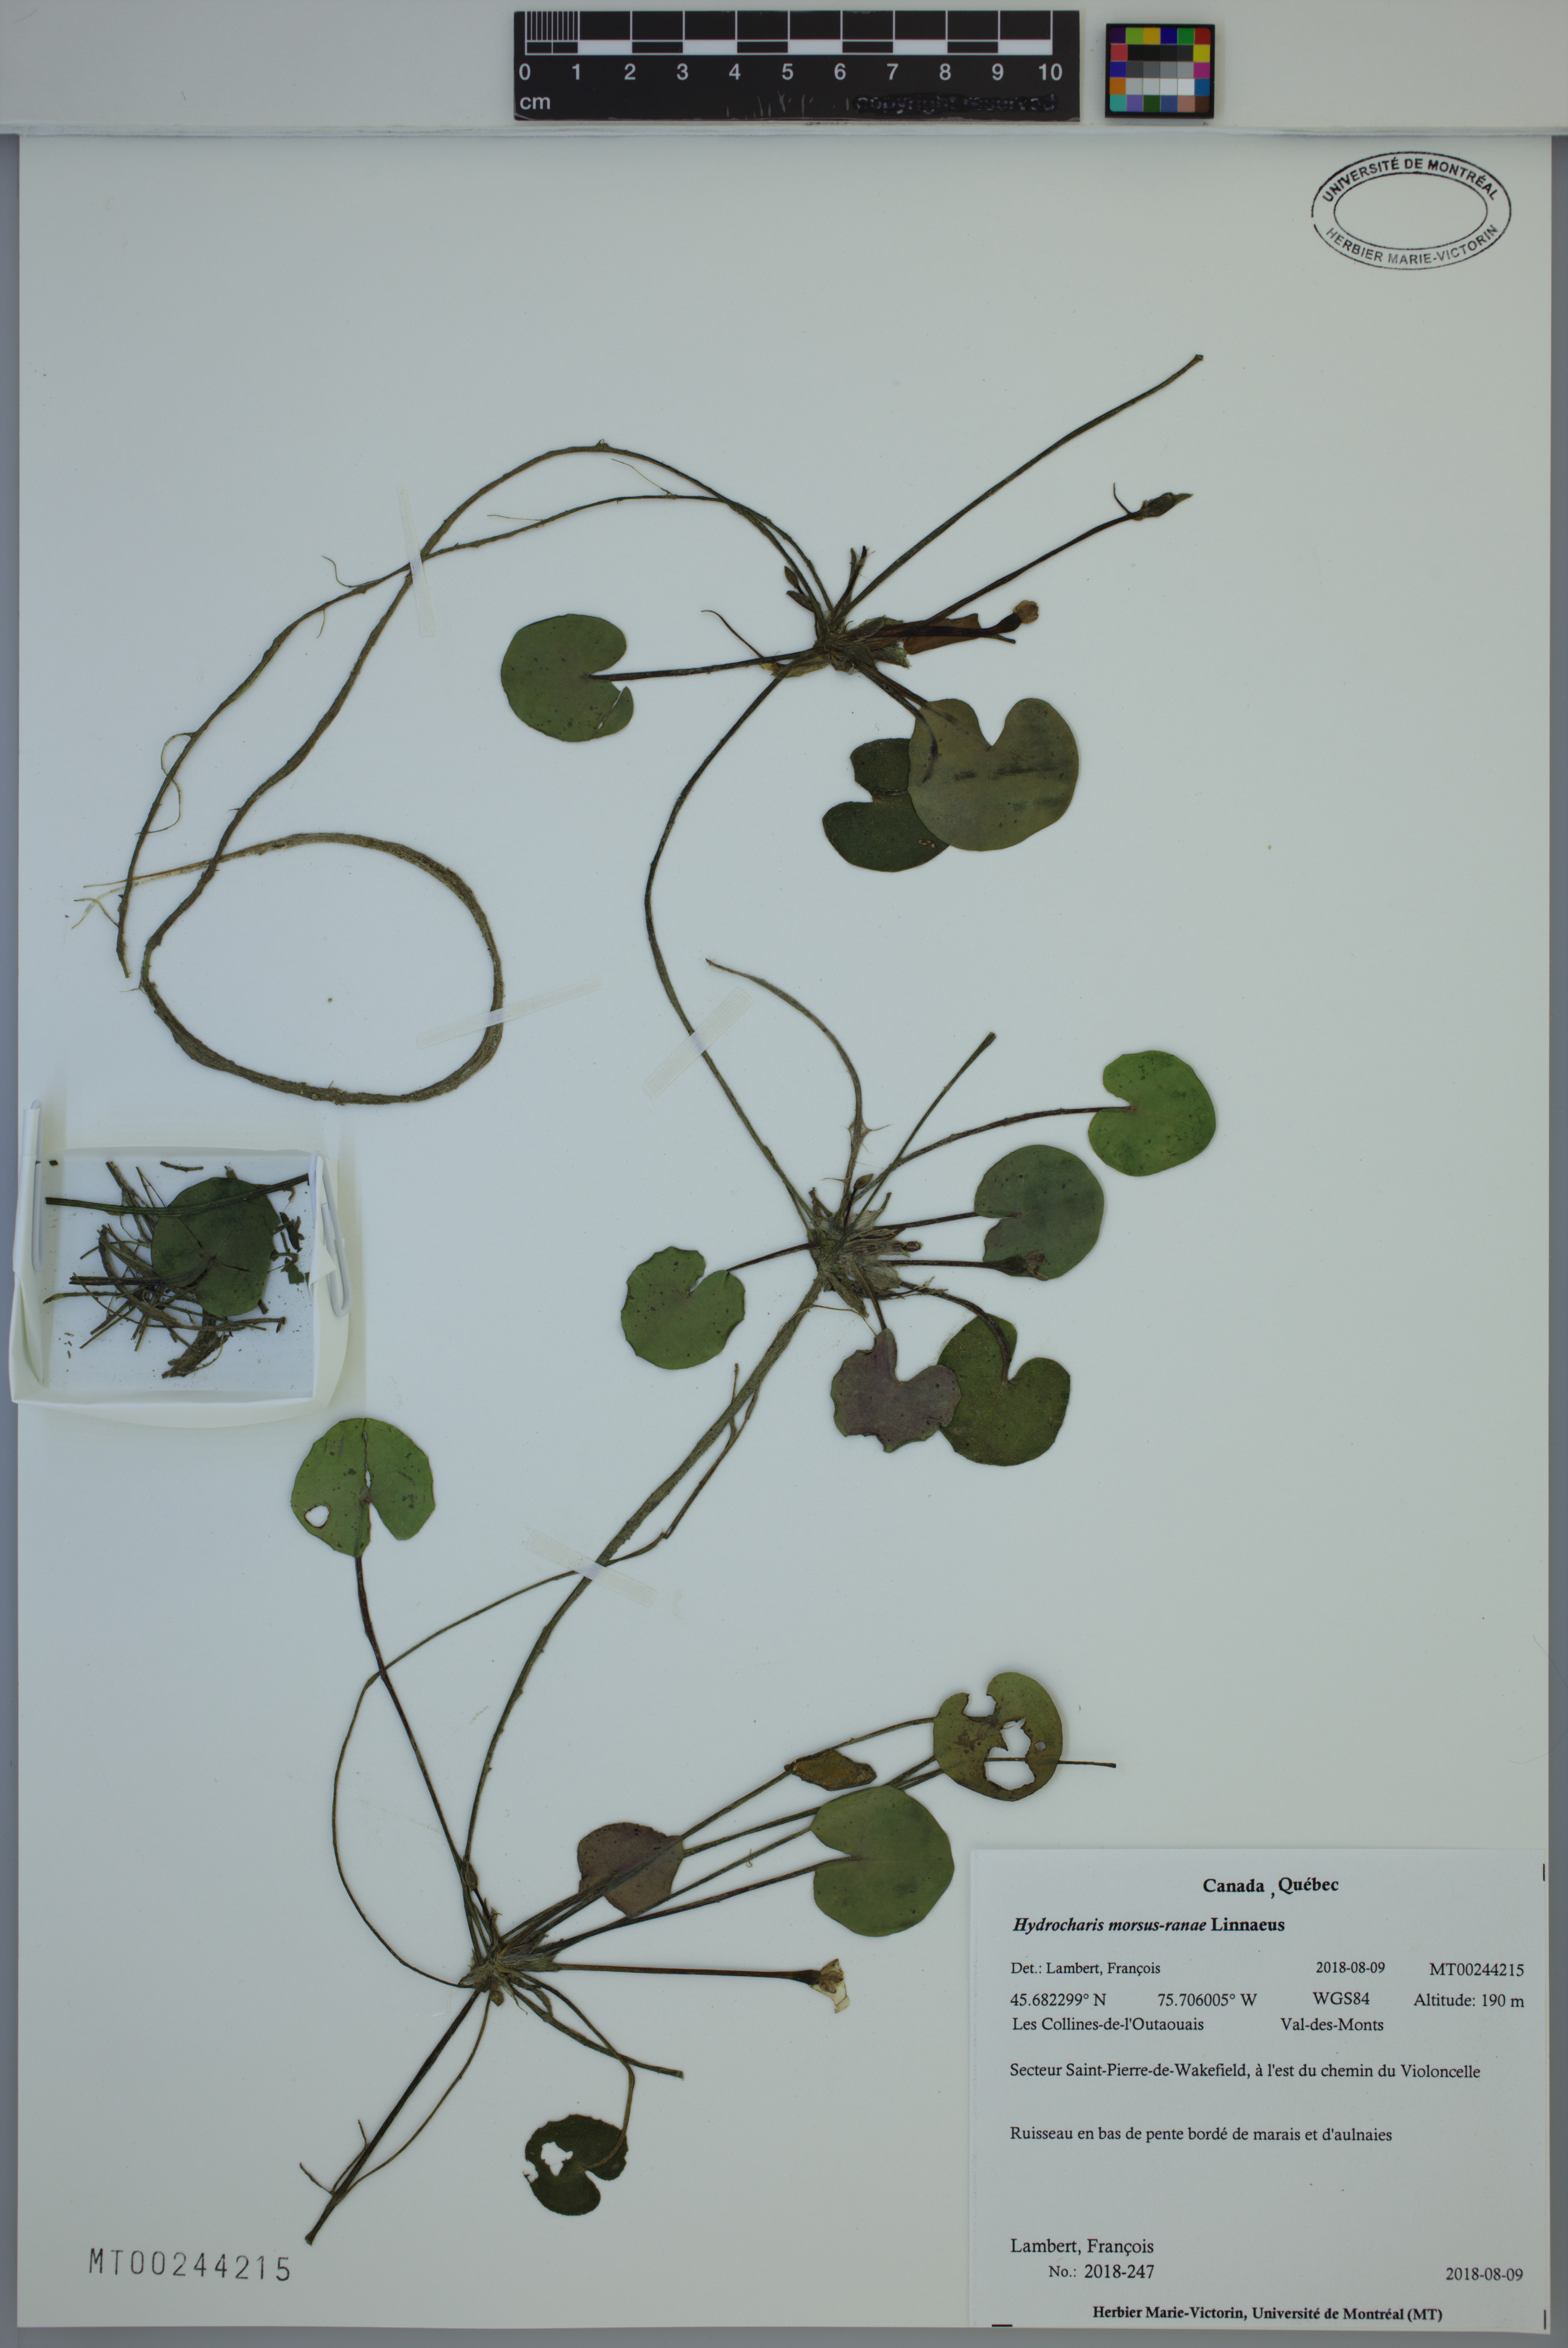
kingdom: Plantae
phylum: Tracheophyta
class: Liliopsida
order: Alismatales
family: Hydrocharitaceae
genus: Hydrocharis
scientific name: Hydrocharis morsus-ranae
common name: Frogbit
